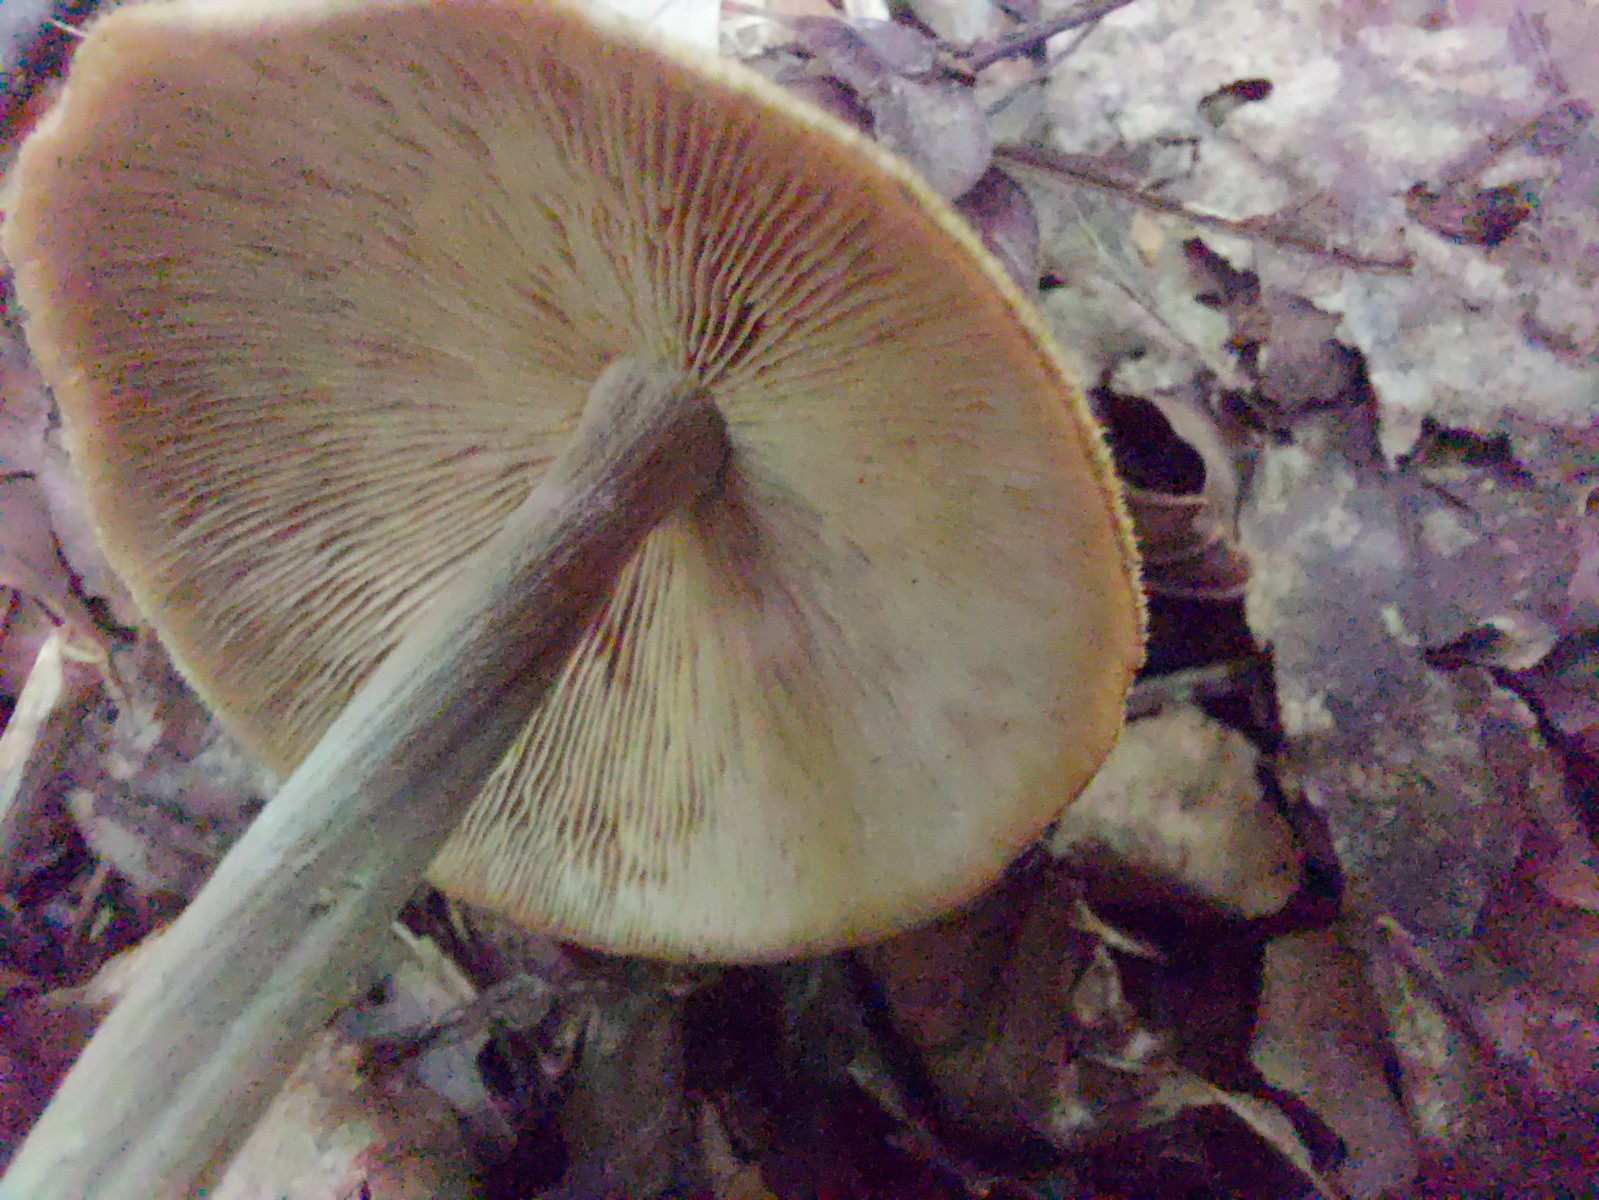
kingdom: Fungi
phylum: Basidiomycota
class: Agaricomycetes
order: Agaricales
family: Omphalotaceae
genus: Collybiopsis
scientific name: Collybiopsis confluens
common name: knippe-fladhat
